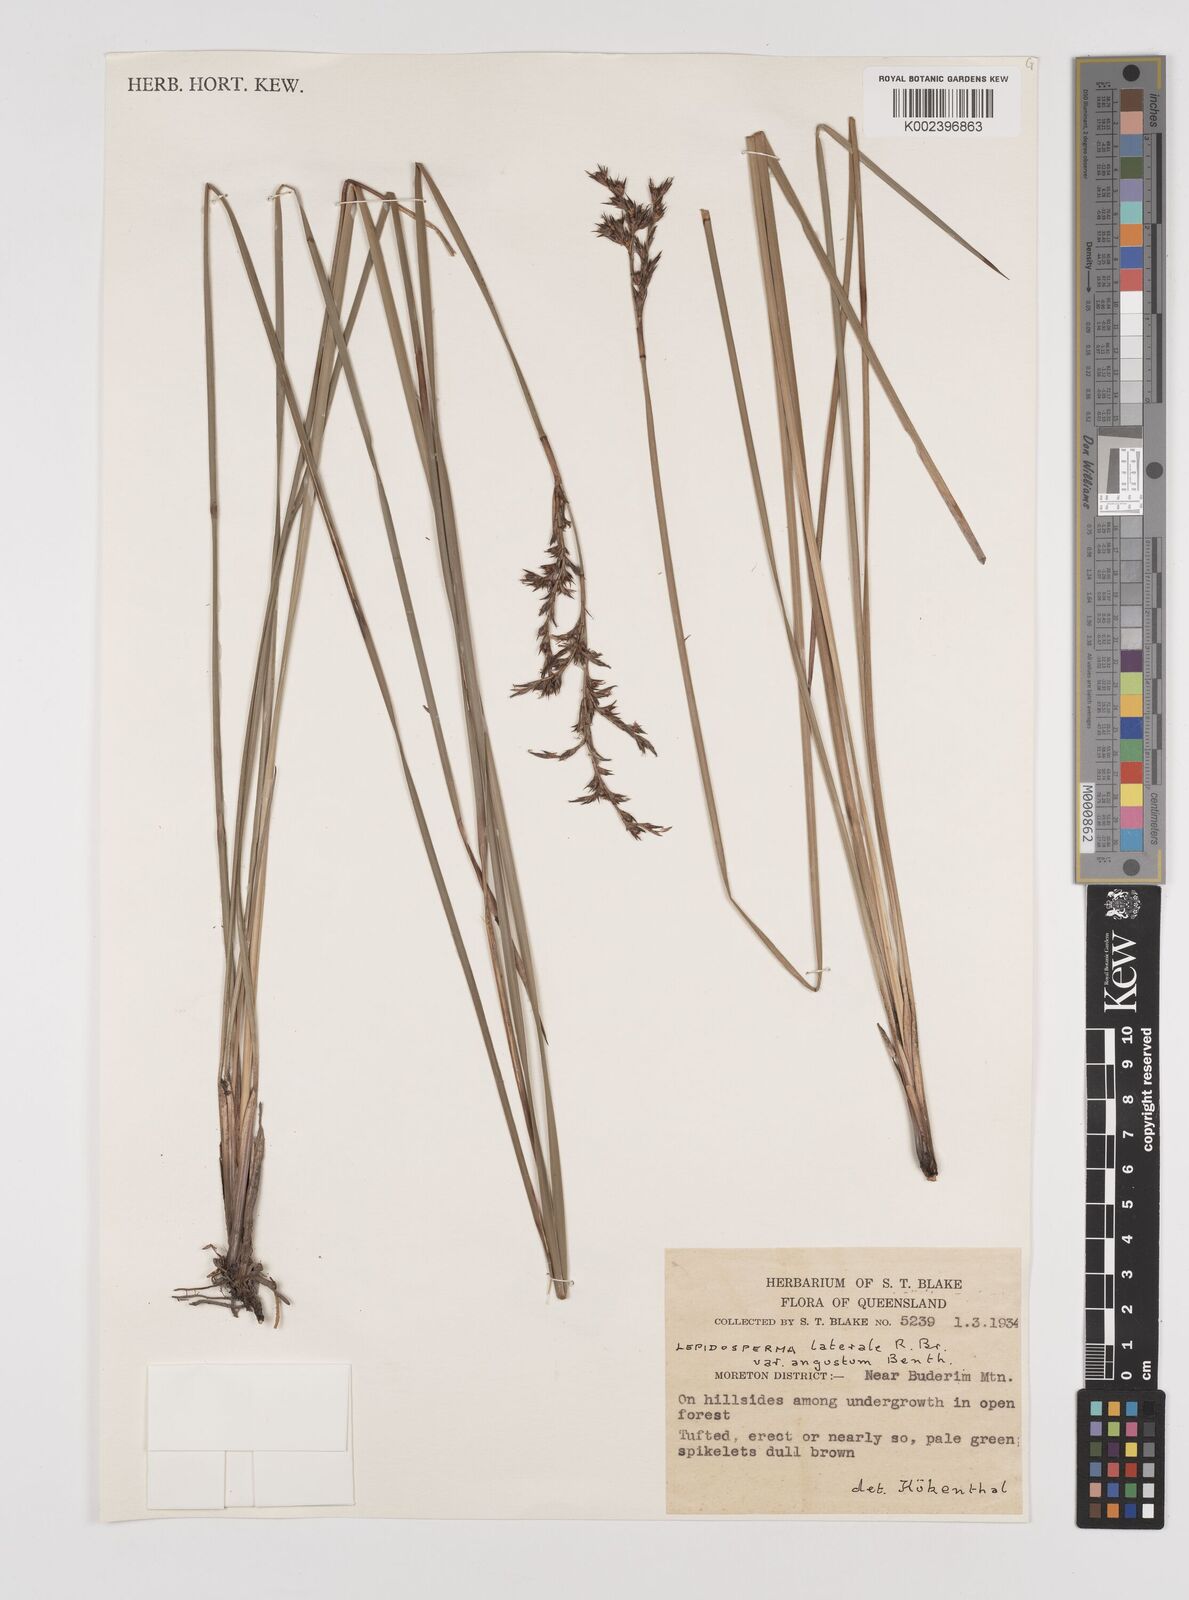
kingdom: Plantae
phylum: Tracheophyta
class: Liliopsida
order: Poales
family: Cyperaceae
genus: Lepidosperma
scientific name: Lepidosperma laterale
